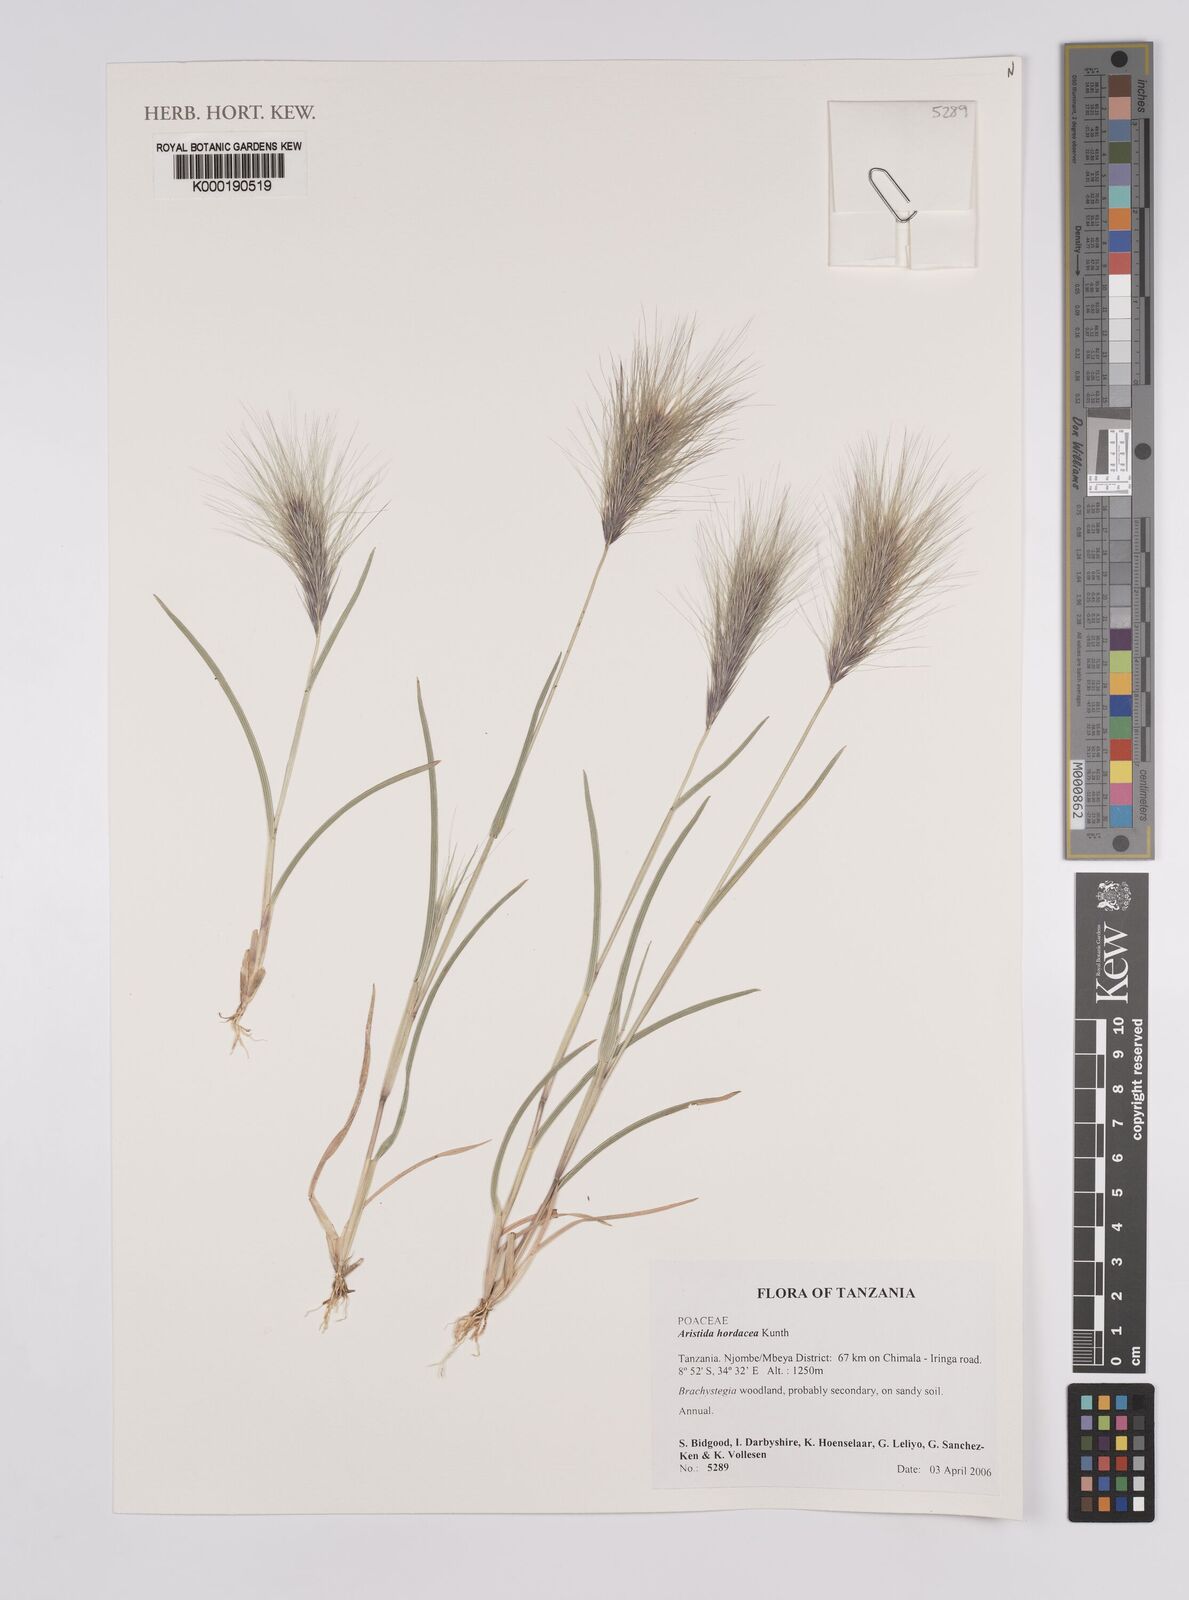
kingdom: Plantae
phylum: Tracheophyta
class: Liliopsida
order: Poales
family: Poaceae
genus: Aristida
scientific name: Aristida hordeacea
